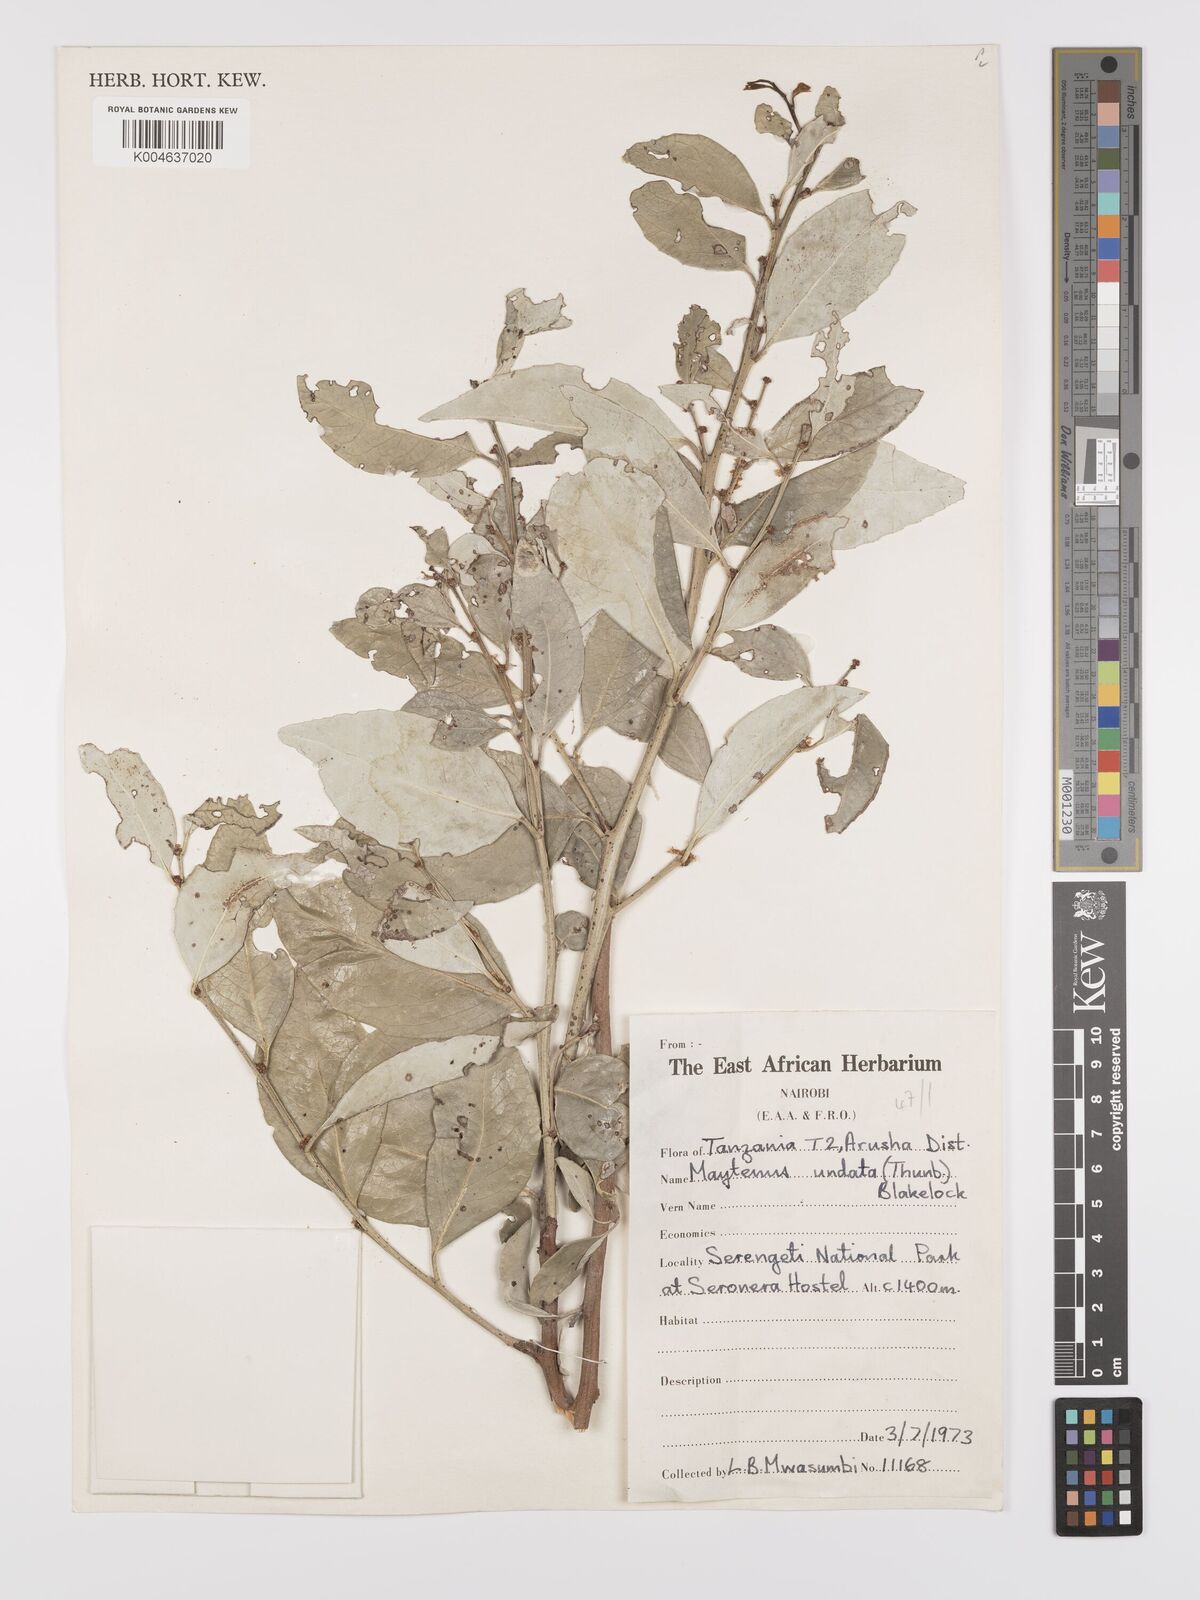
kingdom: Plantae
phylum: Tracheophyta
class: Magnoliopsida
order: Celastrales
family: Celastraceae
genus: Gymnosporia
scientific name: Gymnosporia undata
